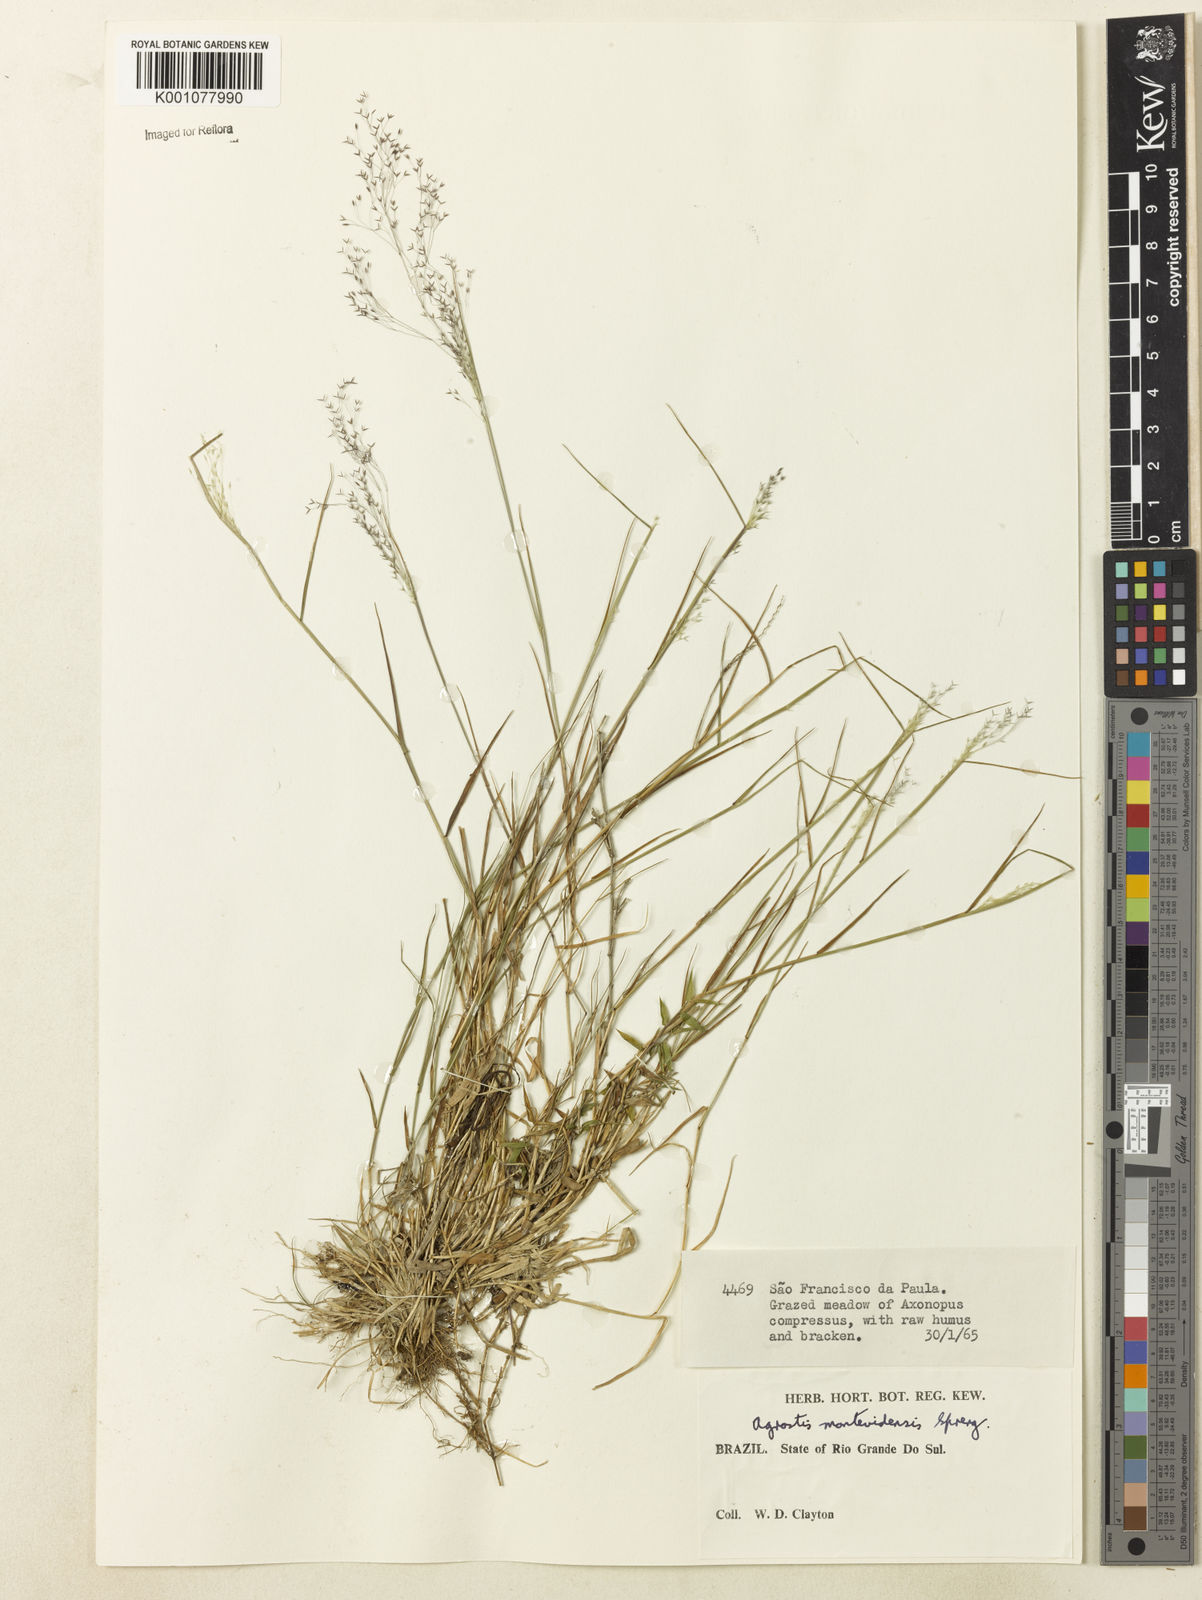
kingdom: Plantae
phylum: Tracheophyta
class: Liliopsida
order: Poales
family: Poaceae
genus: Agrostis
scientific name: Agrostis montevidensis
